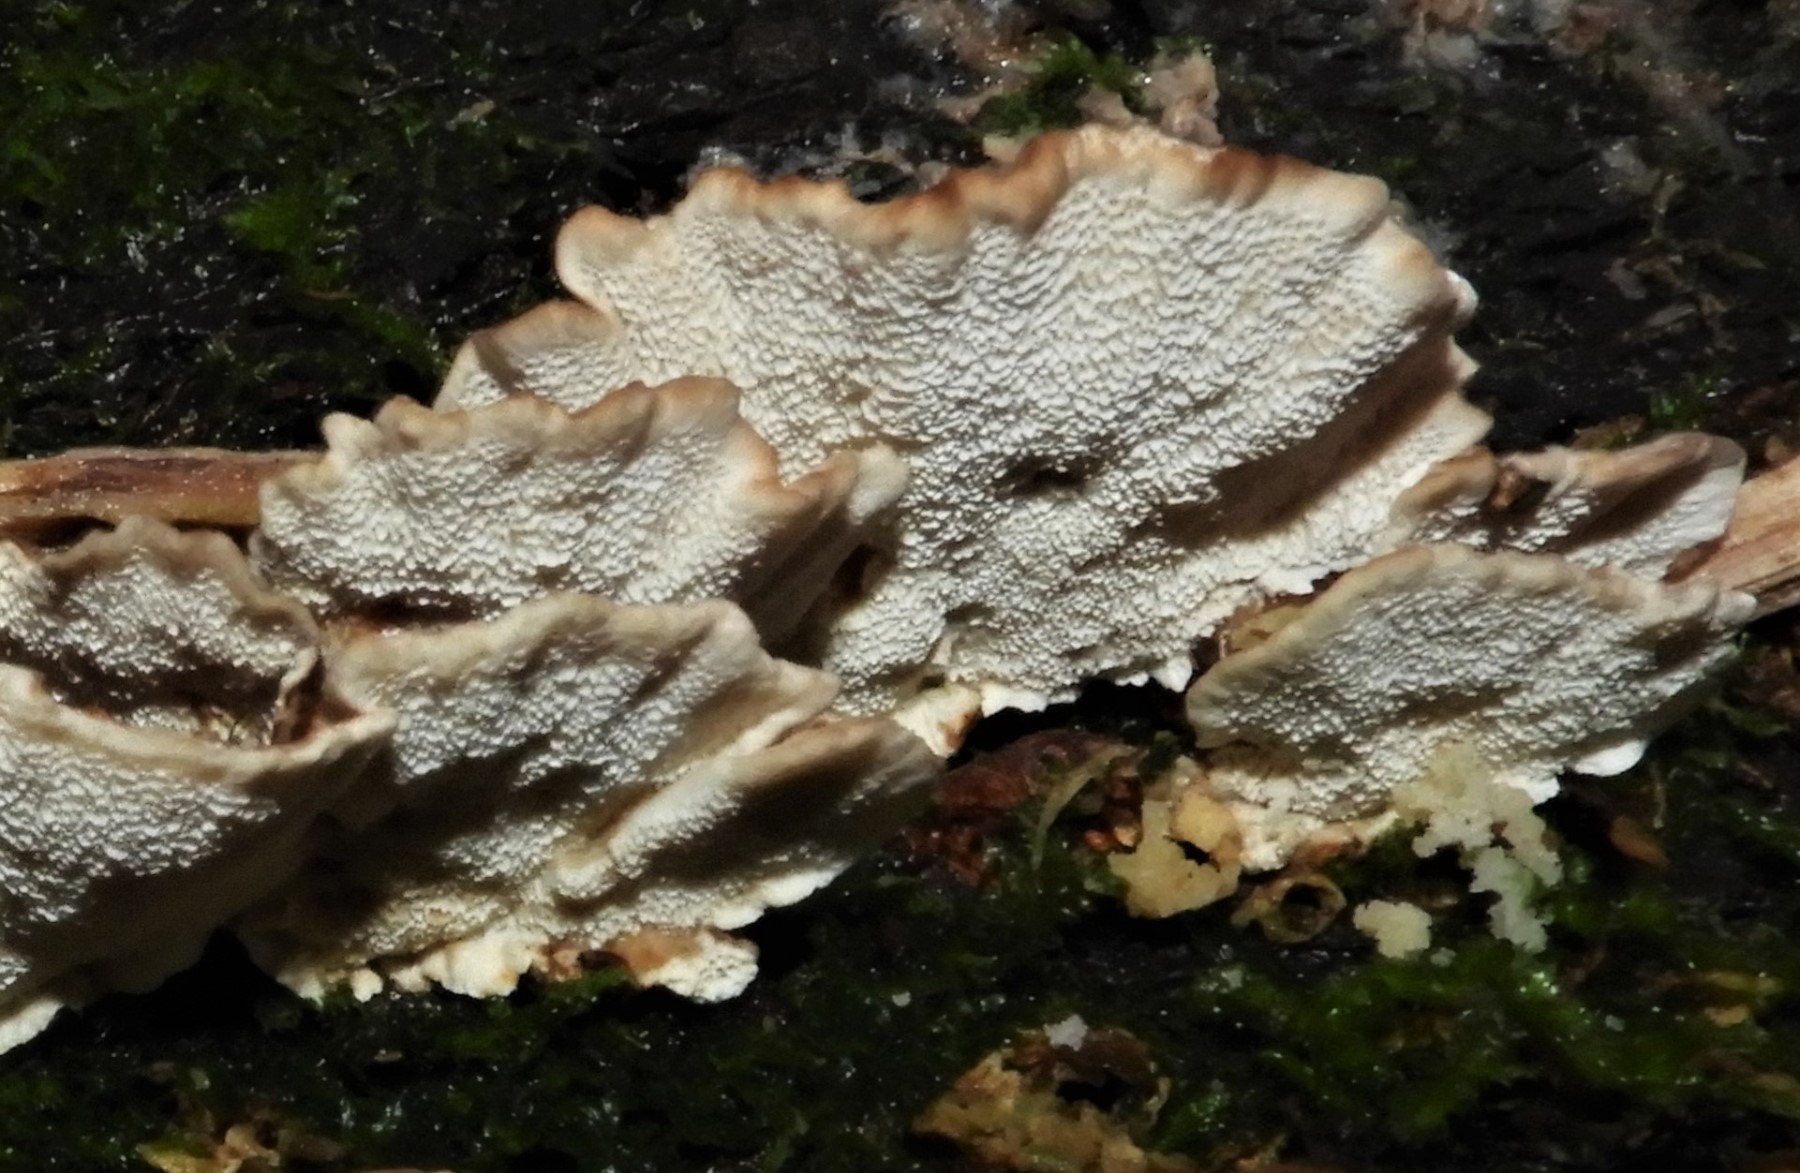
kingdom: Fungi
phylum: Basidiomycota
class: Agaricomycetes
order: Polyporales
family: Polyporaceae
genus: Trametes
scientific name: Trametes versicolor
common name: broget læderporesvamp
